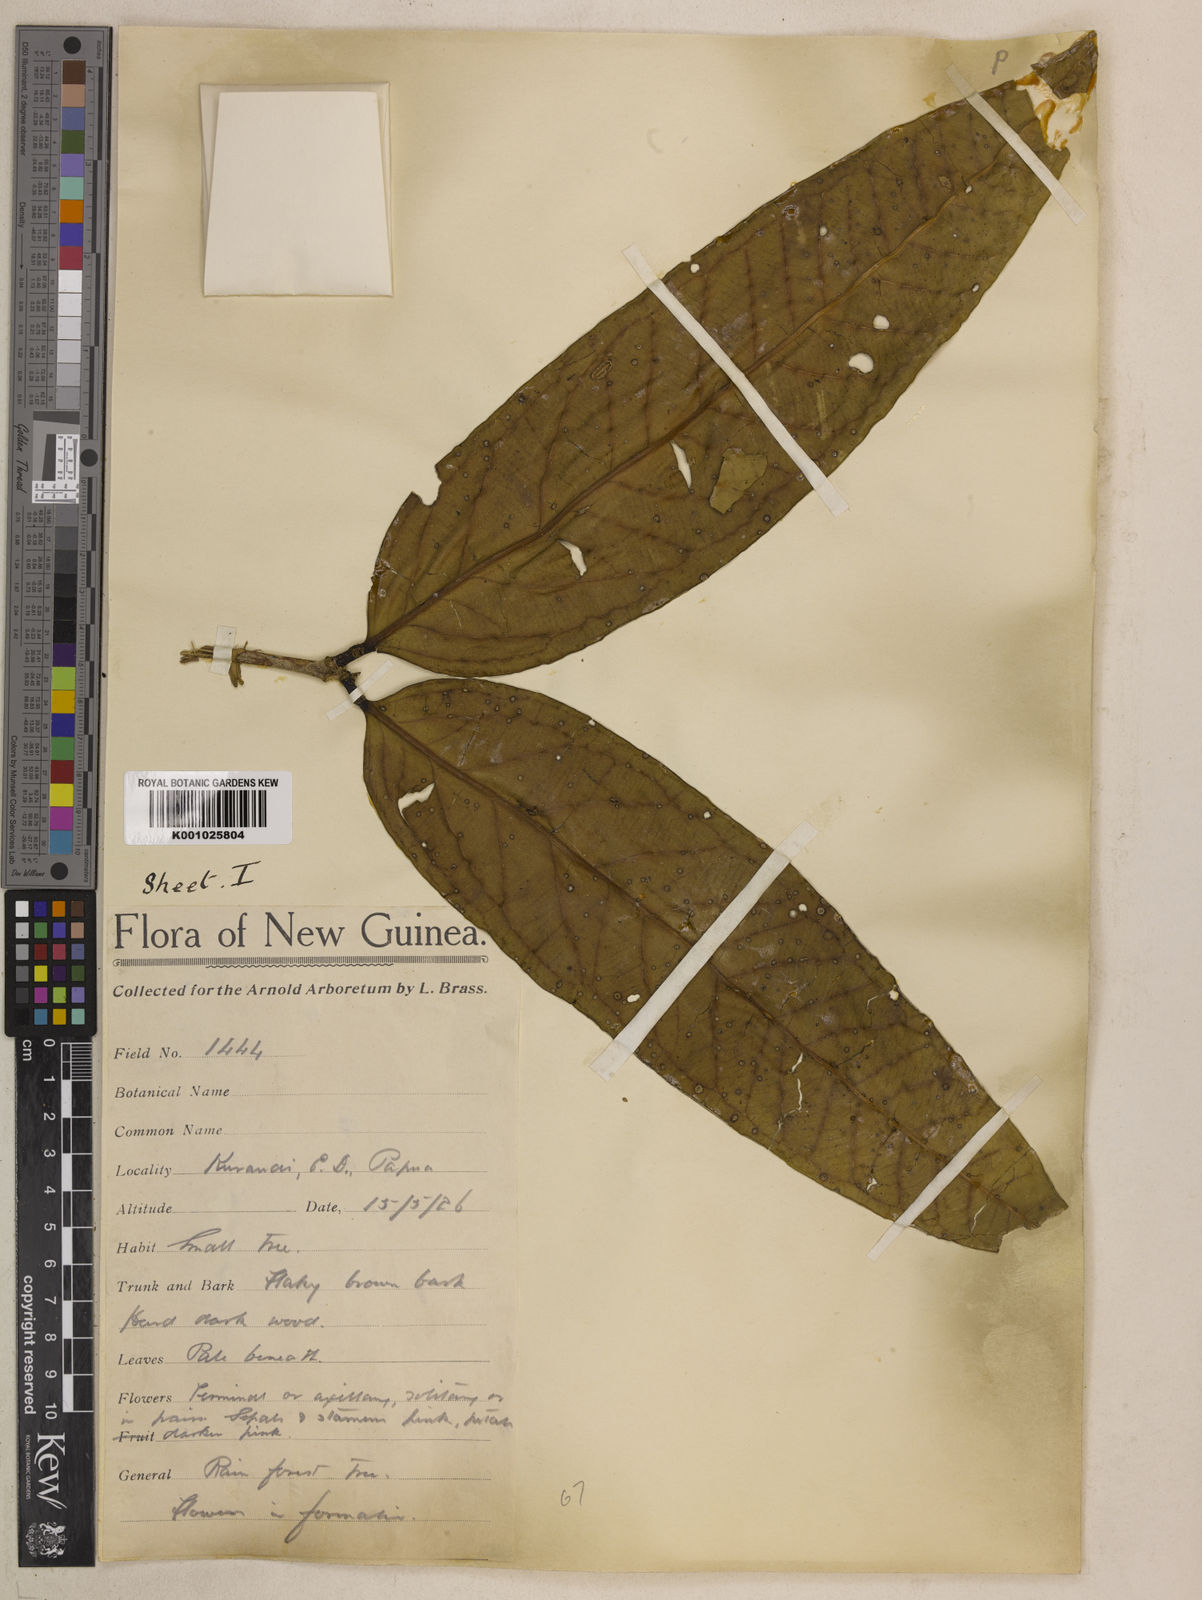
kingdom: Plantae
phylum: Tracheophyta
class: Magnoliopsida
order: Myrtales
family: Myrtaceae
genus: Syzygium
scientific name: Syzygium nutans
